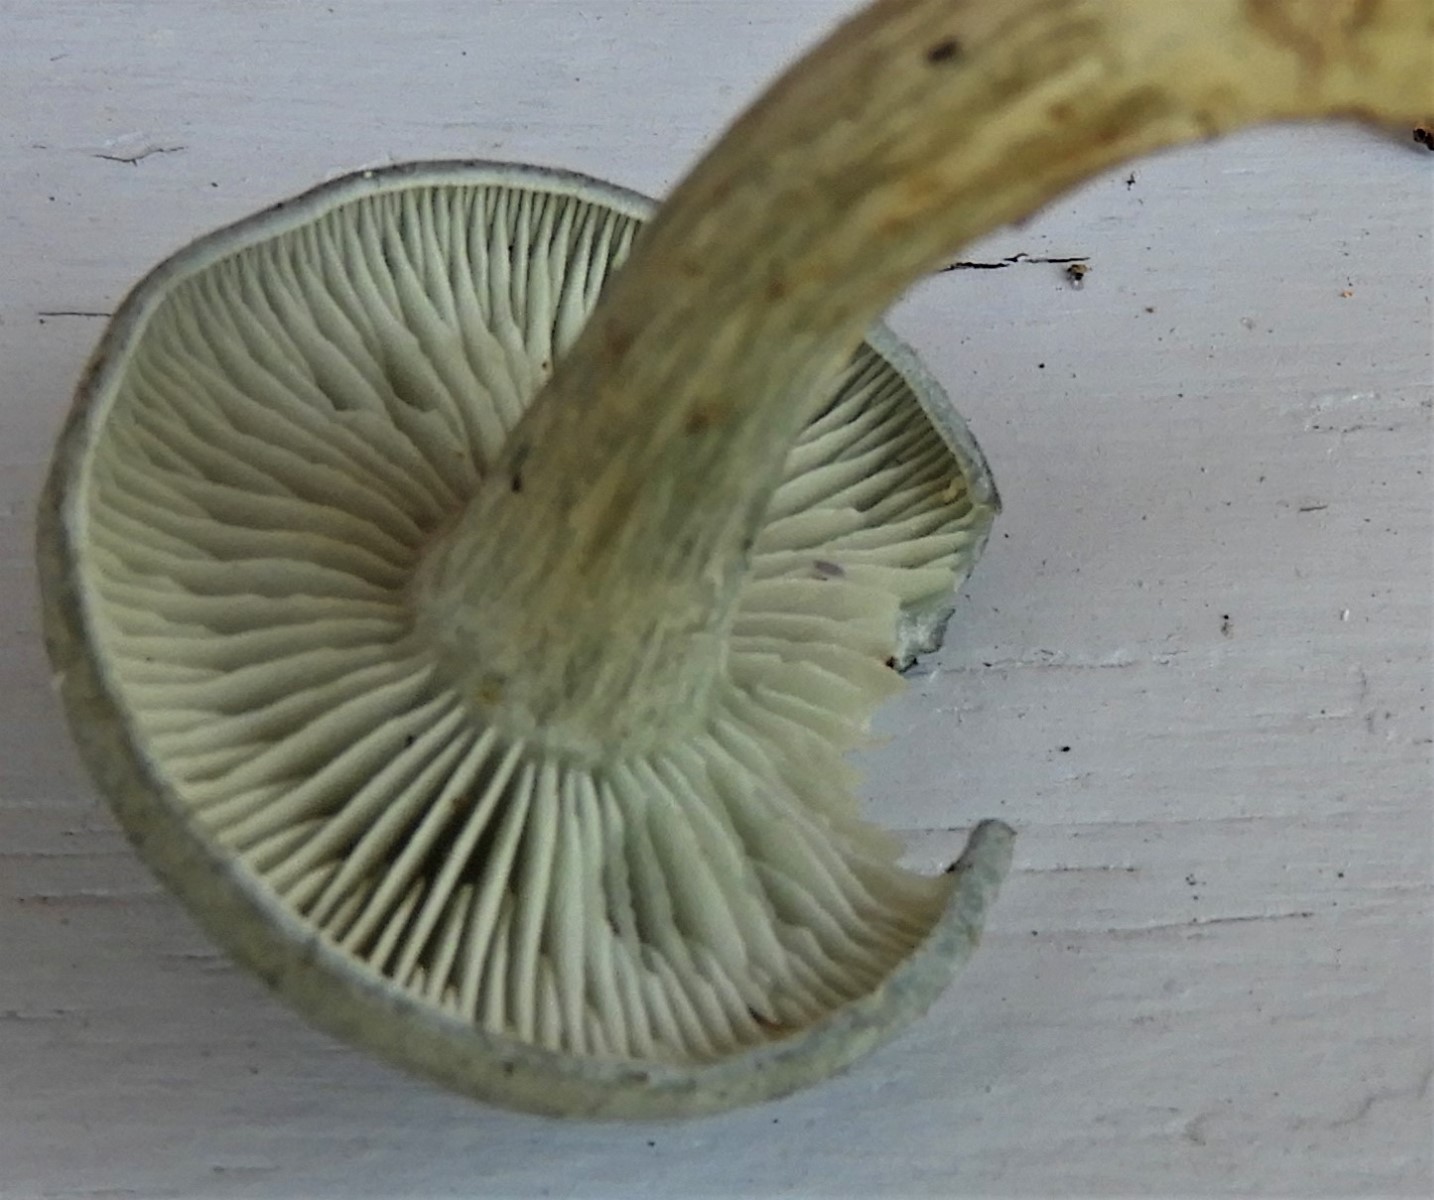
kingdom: Fungi
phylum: Basidiomycota
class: Agaricomycetes
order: Agaricales
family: Tricholomataceae
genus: Clitocybe
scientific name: Clitocybe odora
